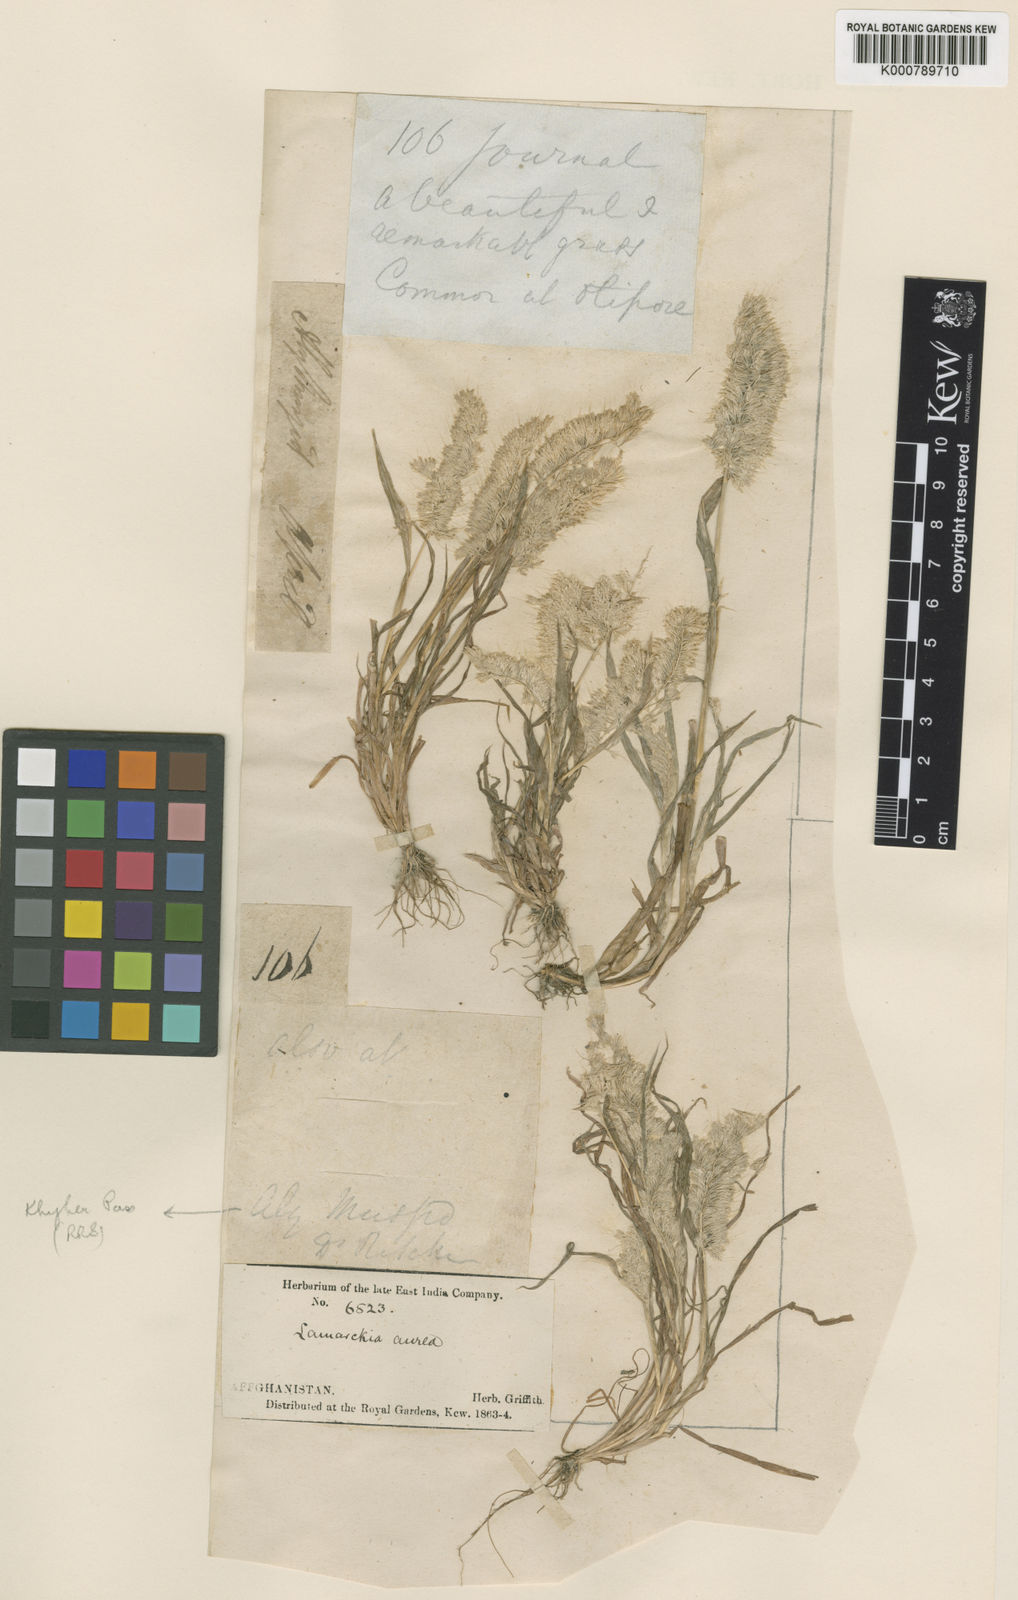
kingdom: Plantae
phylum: Tracheophyta
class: Liliopsida
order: Poales
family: Poaceae
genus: Lamarckia
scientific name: Lamarckia aurea
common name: Golden dog's-tail
